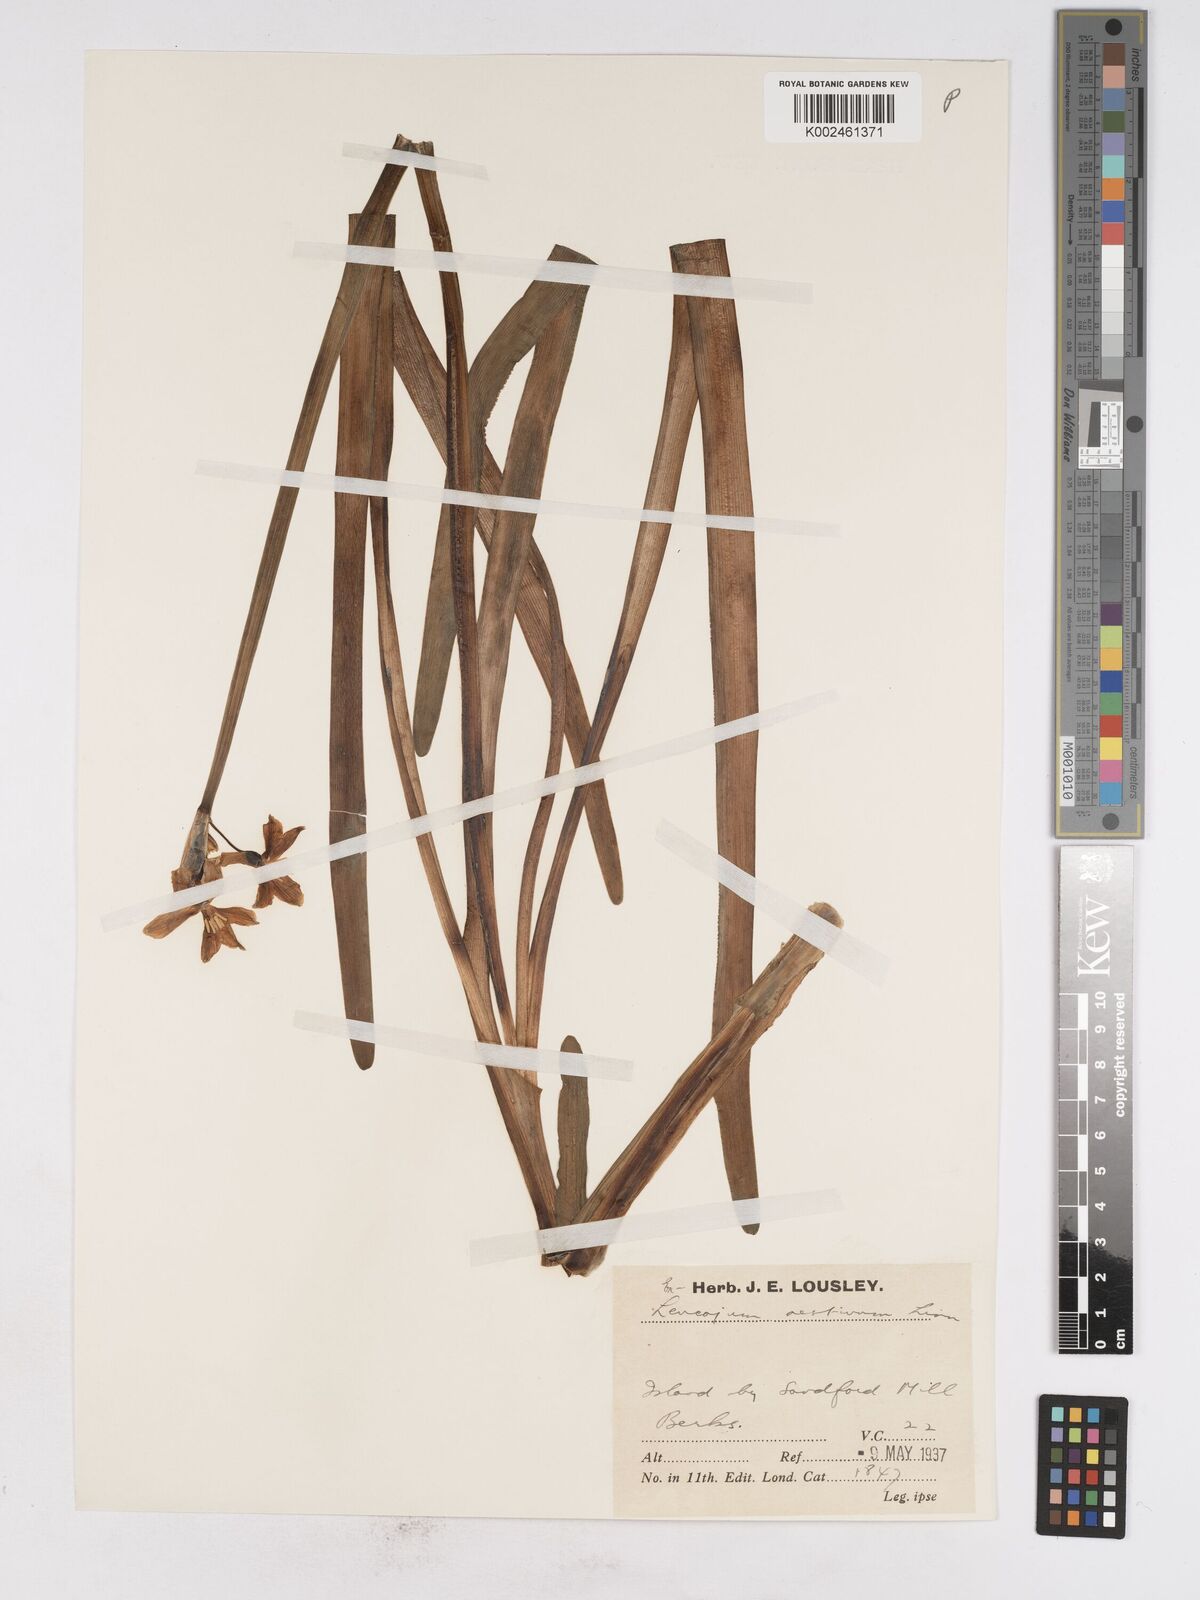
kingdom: Plantae
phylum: Tracheophyta
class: Liliopsida
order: Asparagales
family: Amaryllidaceae
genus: Leucojum
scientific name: Leucojum aestivum
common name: Summer snowflake
